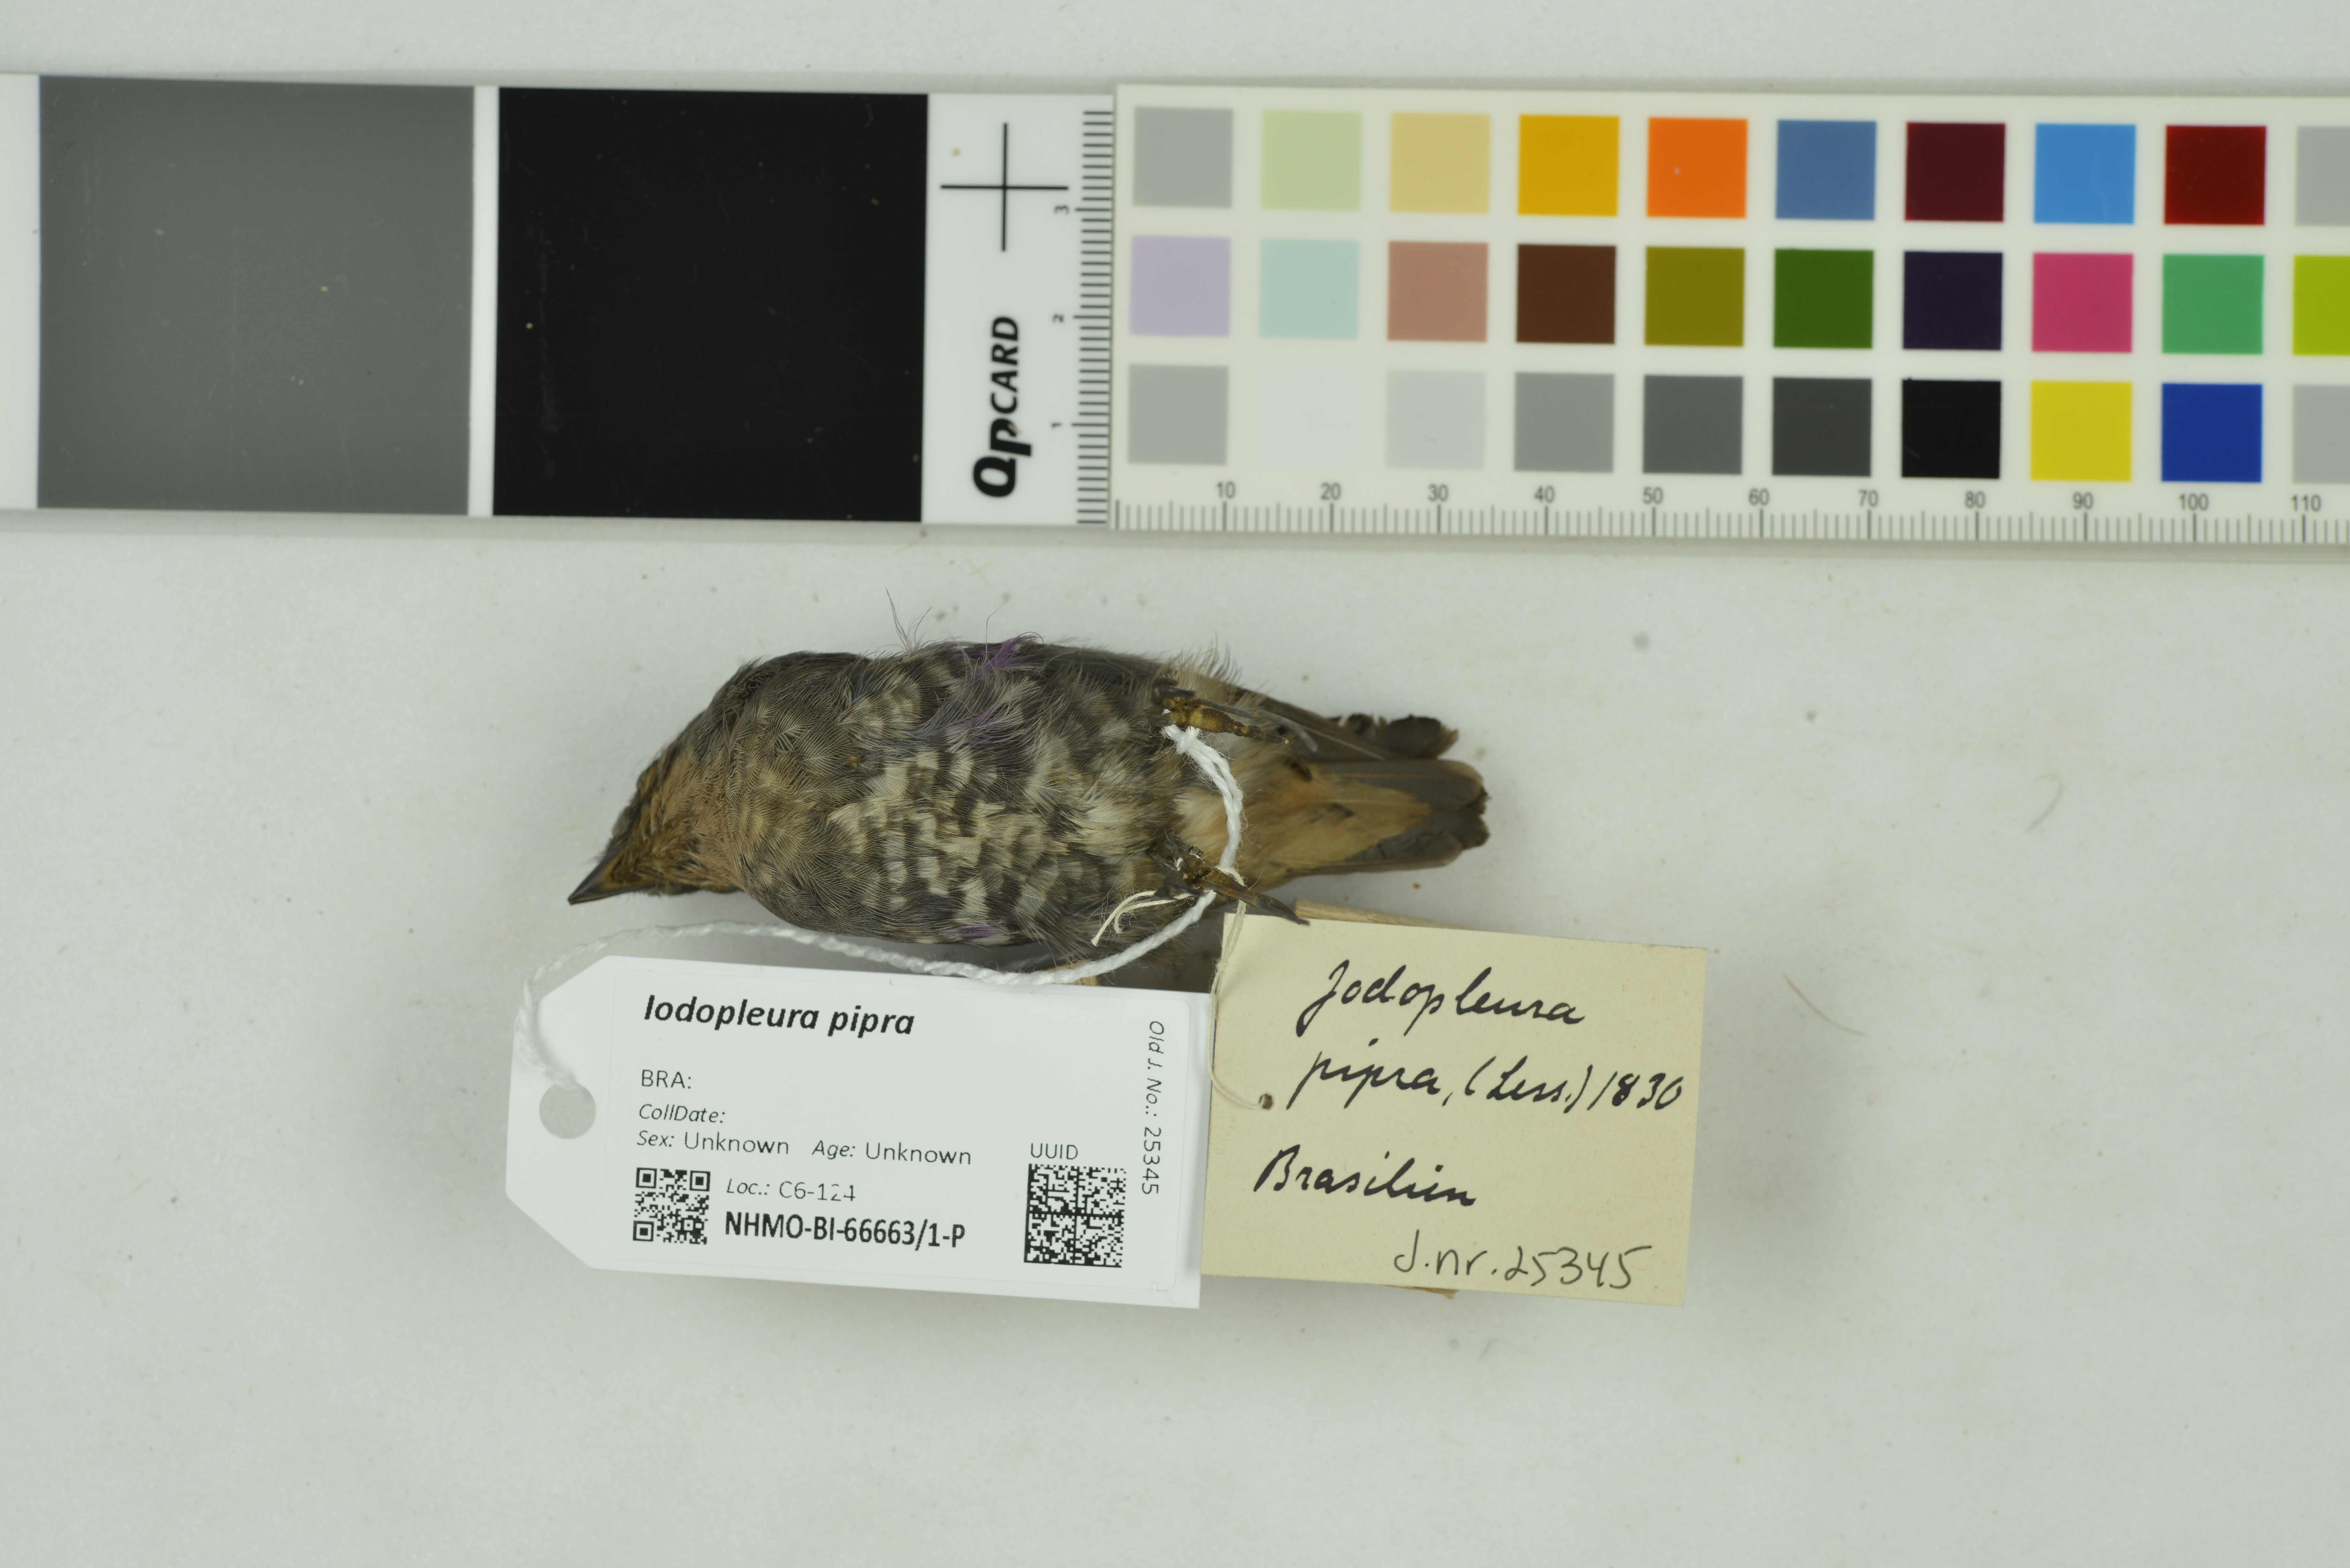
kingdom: Animalia
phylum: Chordata
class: Aves
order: Passeriformes
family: Cotingidae
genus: Iodopleura
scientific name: Iodopleura pipra
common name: Buff-throated purpletuft
